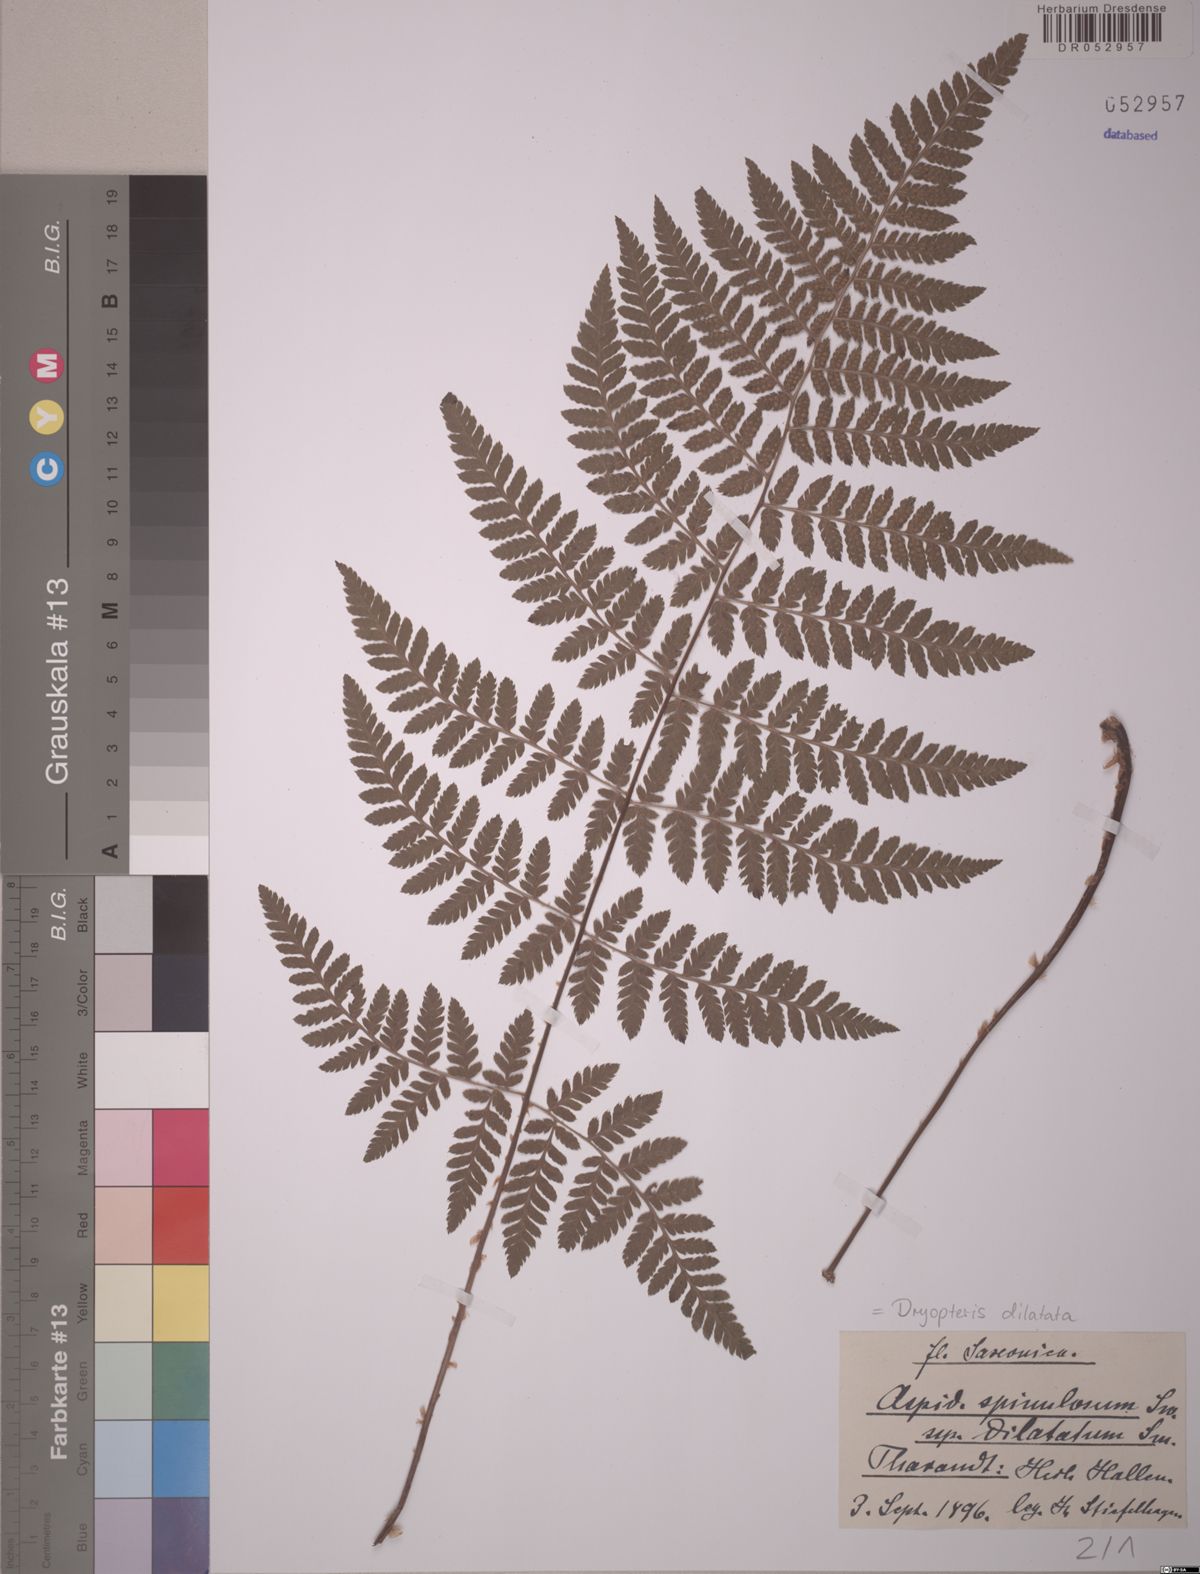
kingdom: Plantae
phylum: Tracheophyta
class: Polypodiopsida
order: Polypodiales
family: Dryopteridaceae
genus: Dryopteris
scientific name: Dryopteris dilatata
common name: Broad buckler-fern
